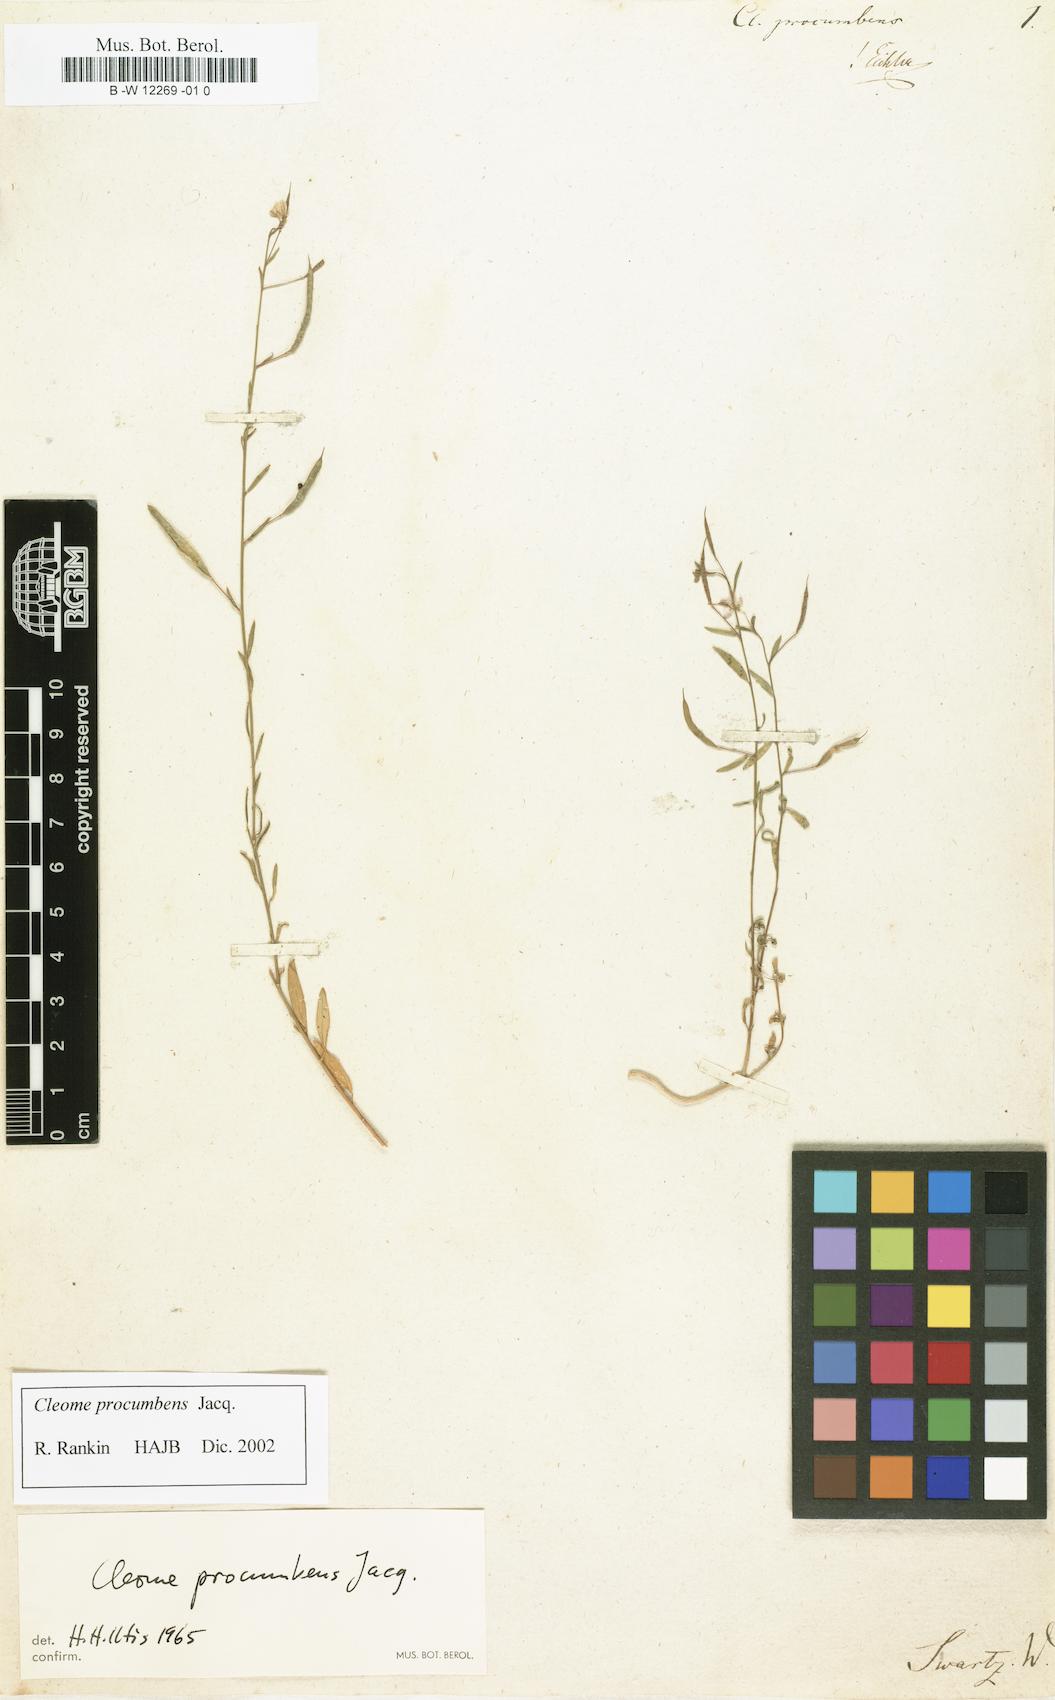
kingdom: Plantae
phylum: Tracheophyta
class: Magnoliopsida
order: Brassicales
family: Cleomaceae
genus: Physostemon
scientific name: Physostemon procumbens
